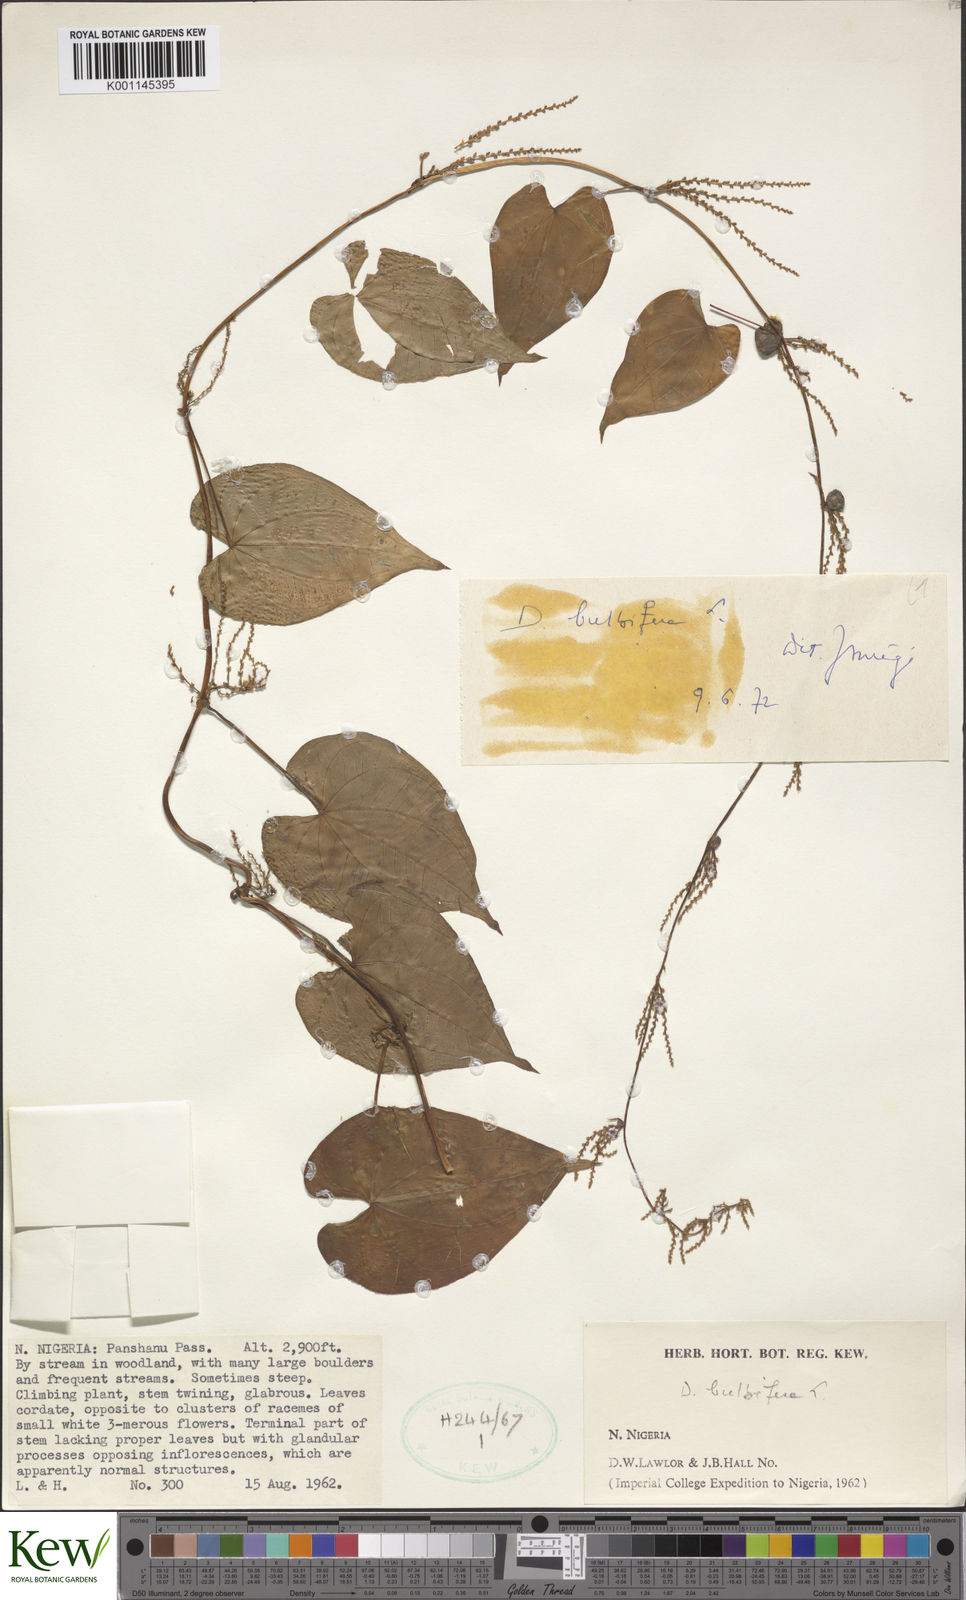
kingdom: Plantae
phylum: Tracheophyta
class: Liliopsida
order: Dioscoreales
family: Dioscoreaceae
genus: Dioscorea
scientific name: Dioscorea bulbifera
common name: Air yam
